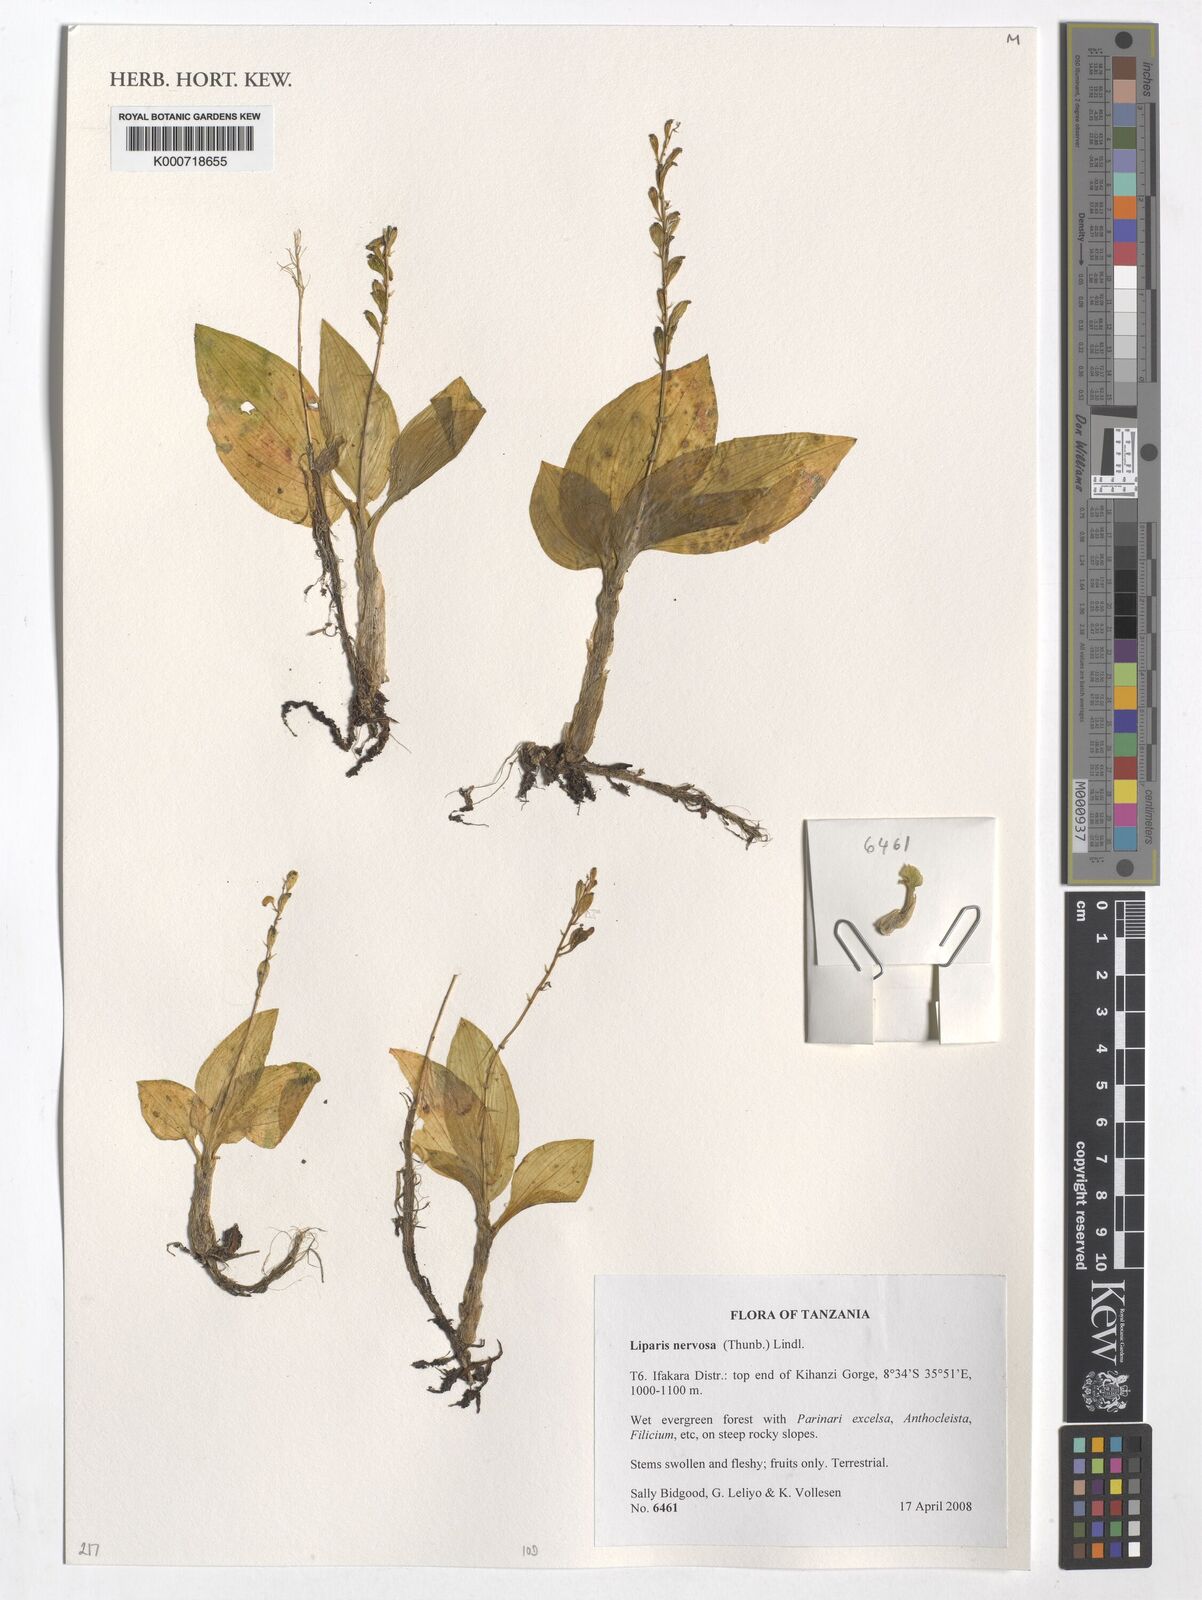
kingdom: Plantae
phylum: Tracheophyta
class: Liliopsida
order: Asparagales
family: Orchidaceae
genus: Liparis
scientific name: Liparis nervosa
